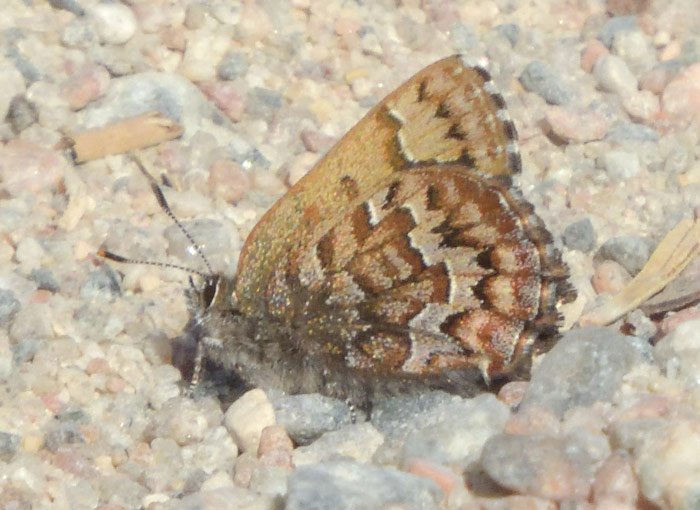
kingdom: Animalia
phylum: Arthropoda
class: Insecta
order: Lepidoptera
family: Lycaenidae
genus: Incisalia
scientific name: Incisalia niphon
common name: Eastern Pine Elfin
